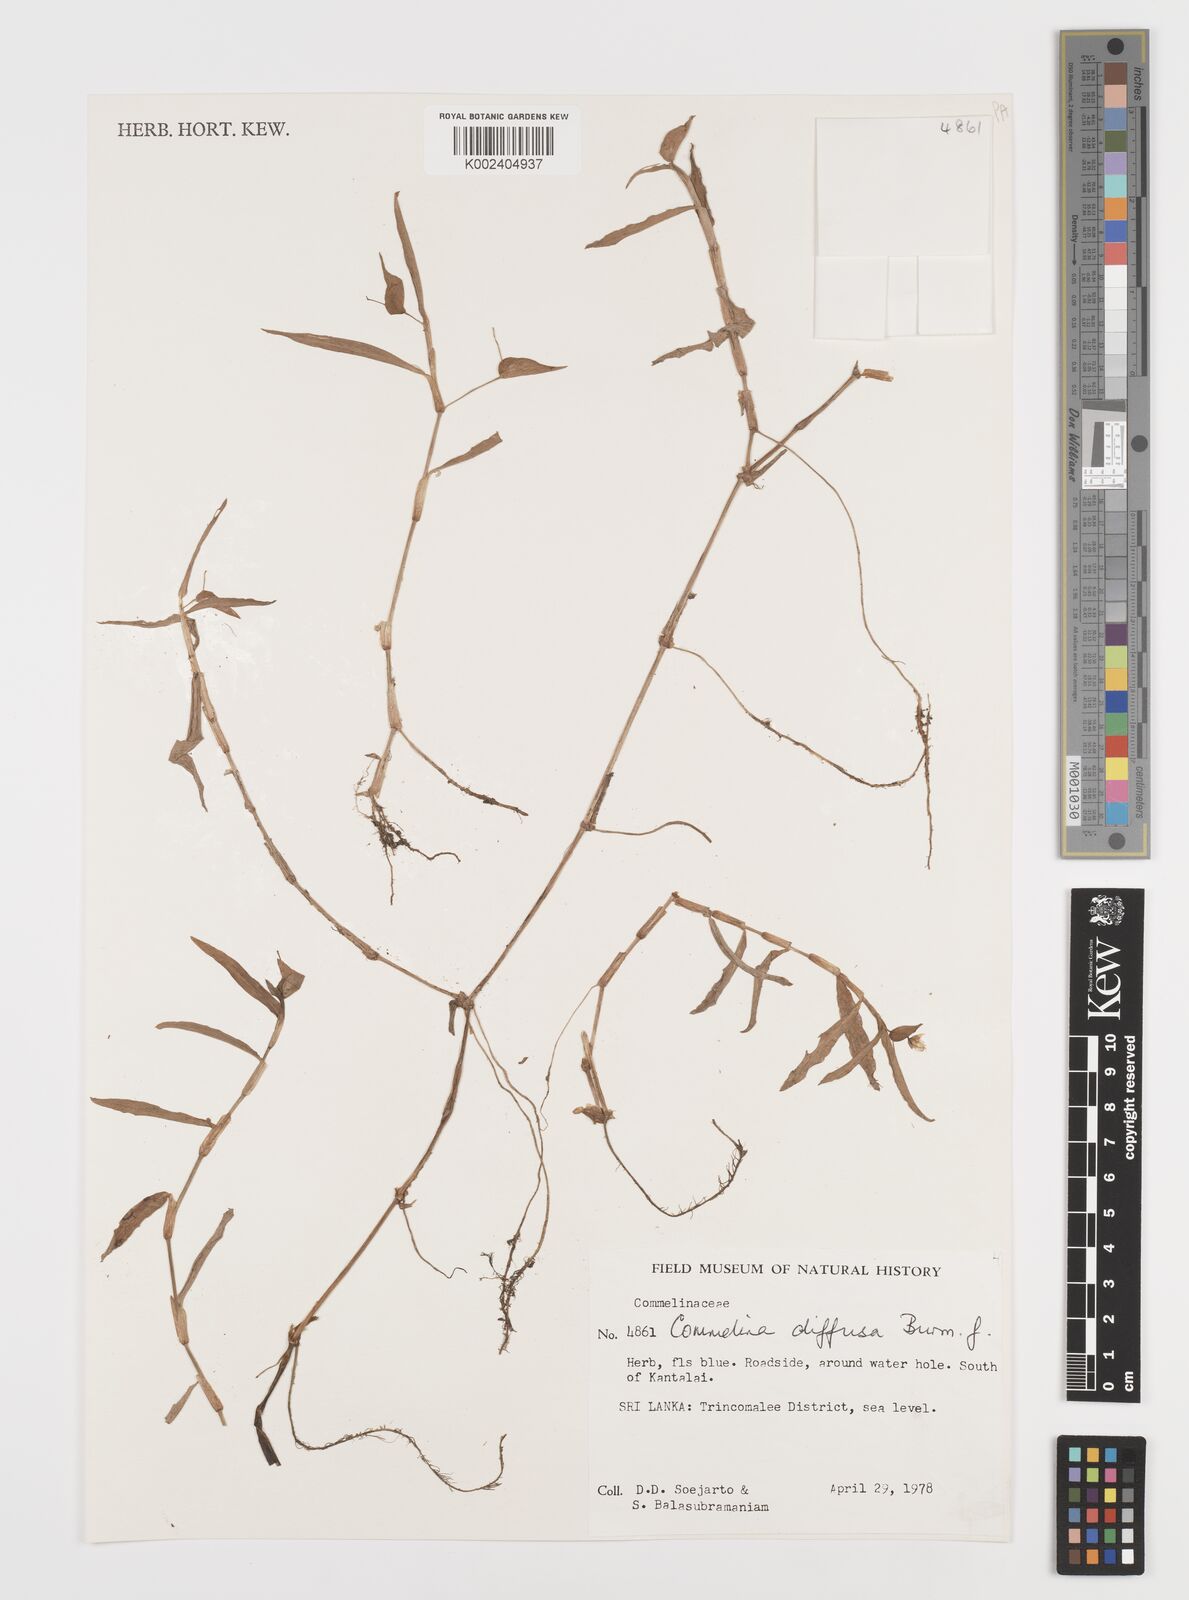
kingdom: Plantae
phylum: Tracheophyta
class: Liliopsida
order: Commelinales
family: Commelinaceae
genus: Murdannia
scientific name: Murdannia nudiflora
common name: Nakedstem dewflower
